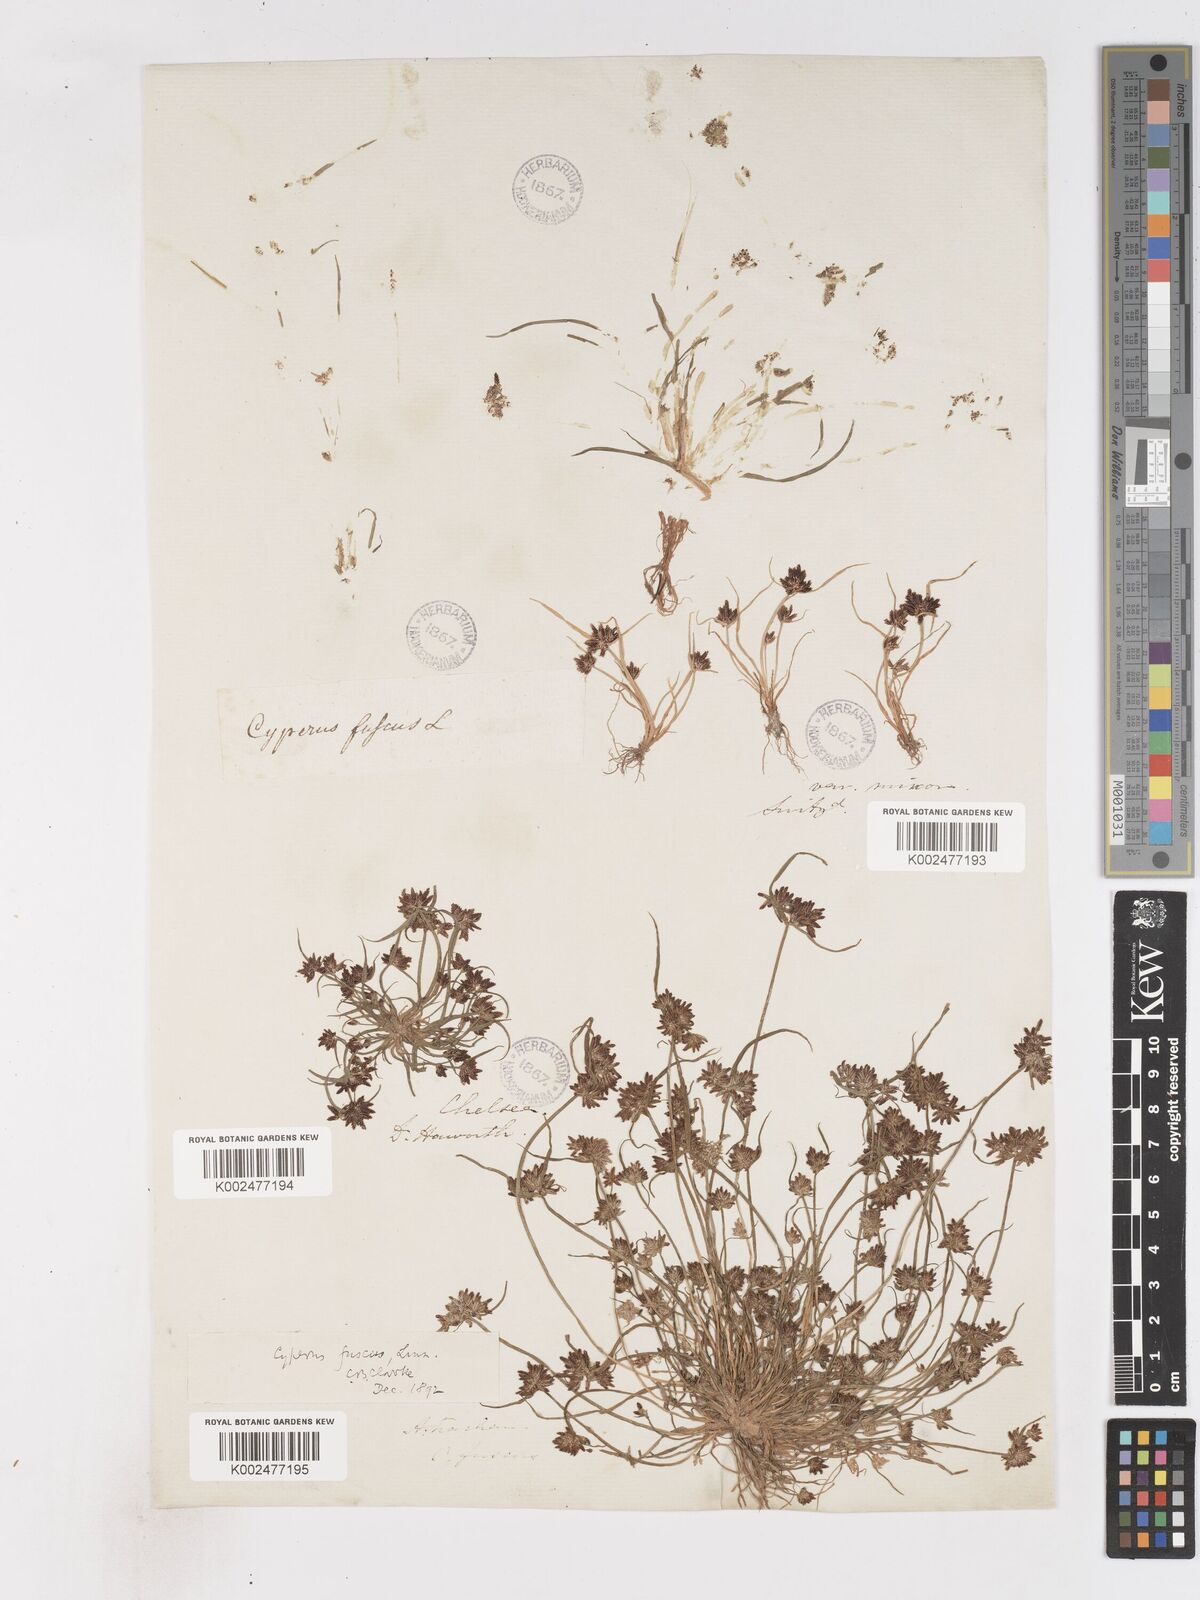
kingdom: Plantae
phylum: Tracheophyta
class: Liliopsida
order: Poales
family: Cyperaceae
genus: Cyperus
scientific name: Cyperus fuscus
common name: Brown galingale
